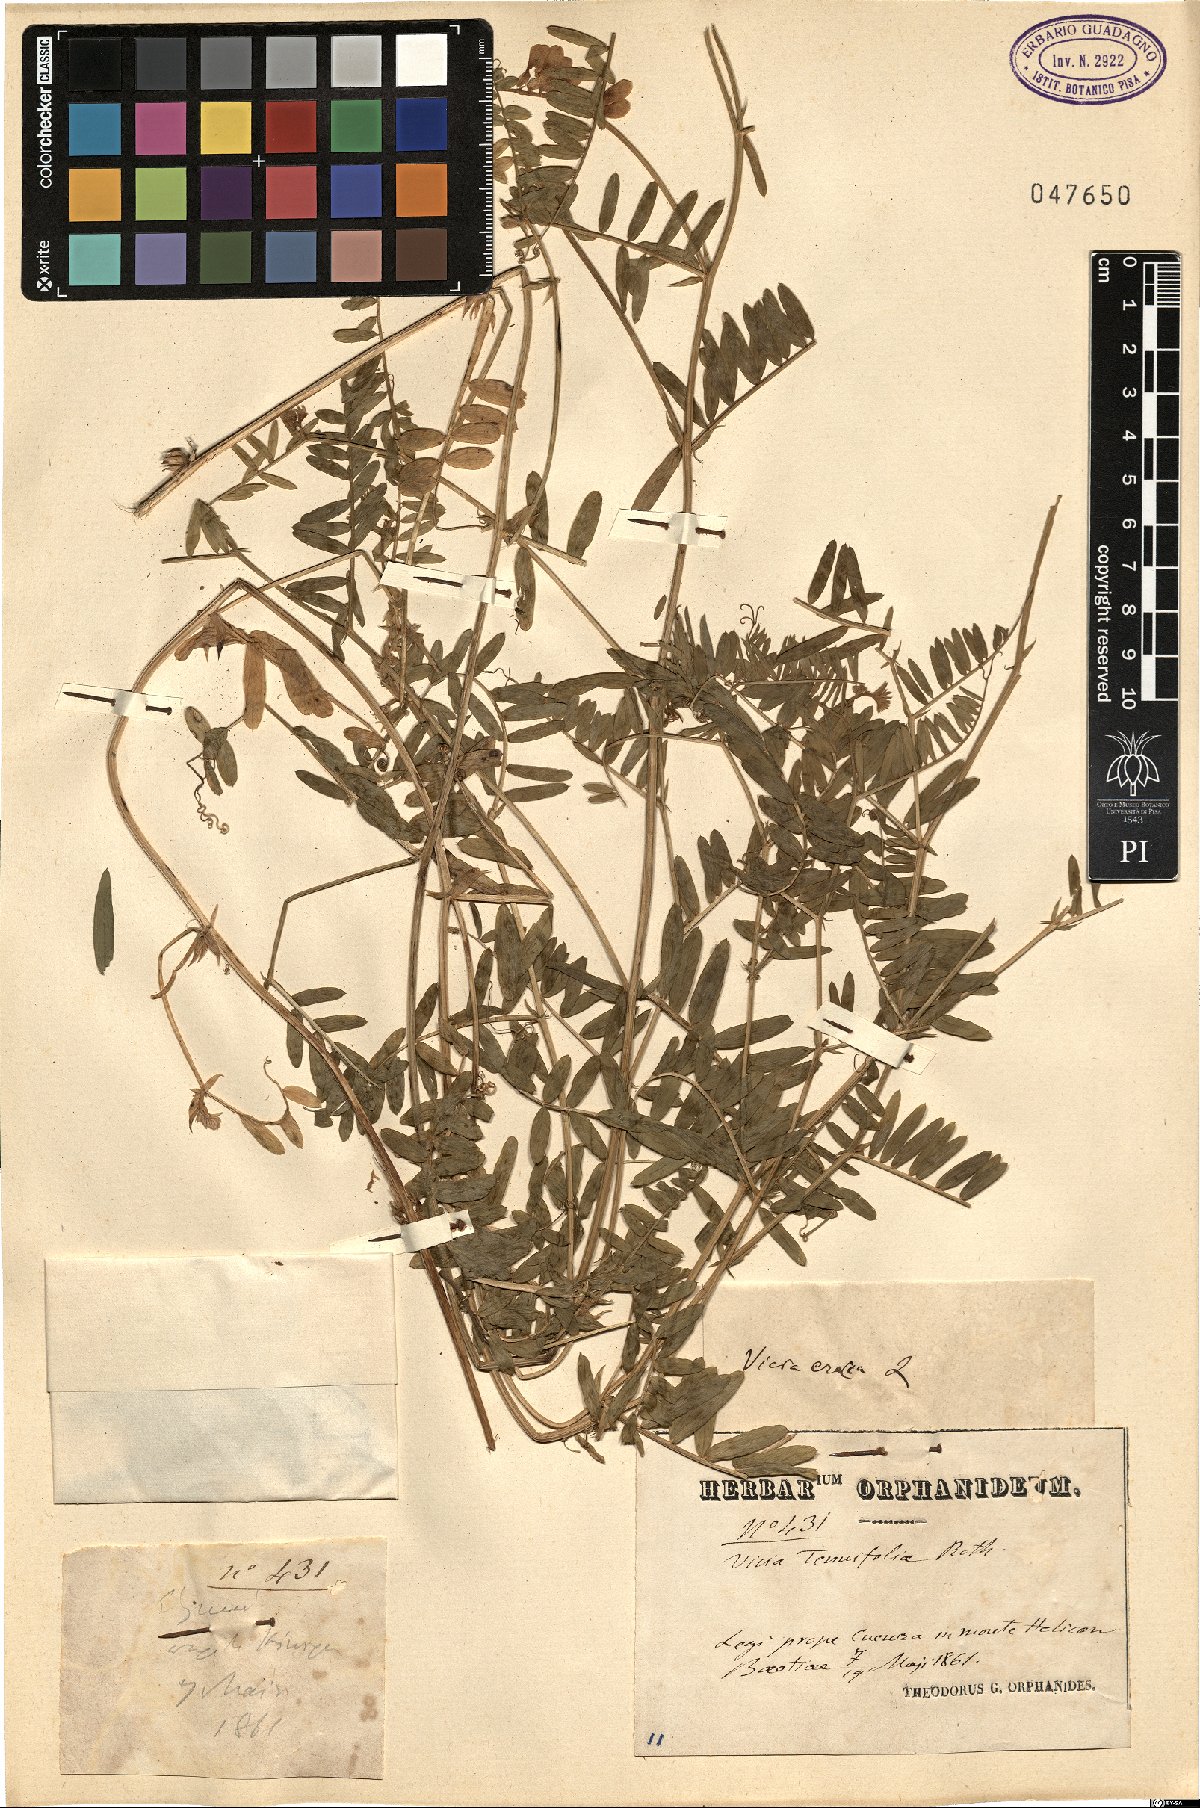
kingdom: Plantae
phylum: Tracheophyta
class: Magnoliopsida
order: Fabales
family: Fabaceae
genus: Vicia
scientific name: Vicia cracca
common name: Bird vetch
